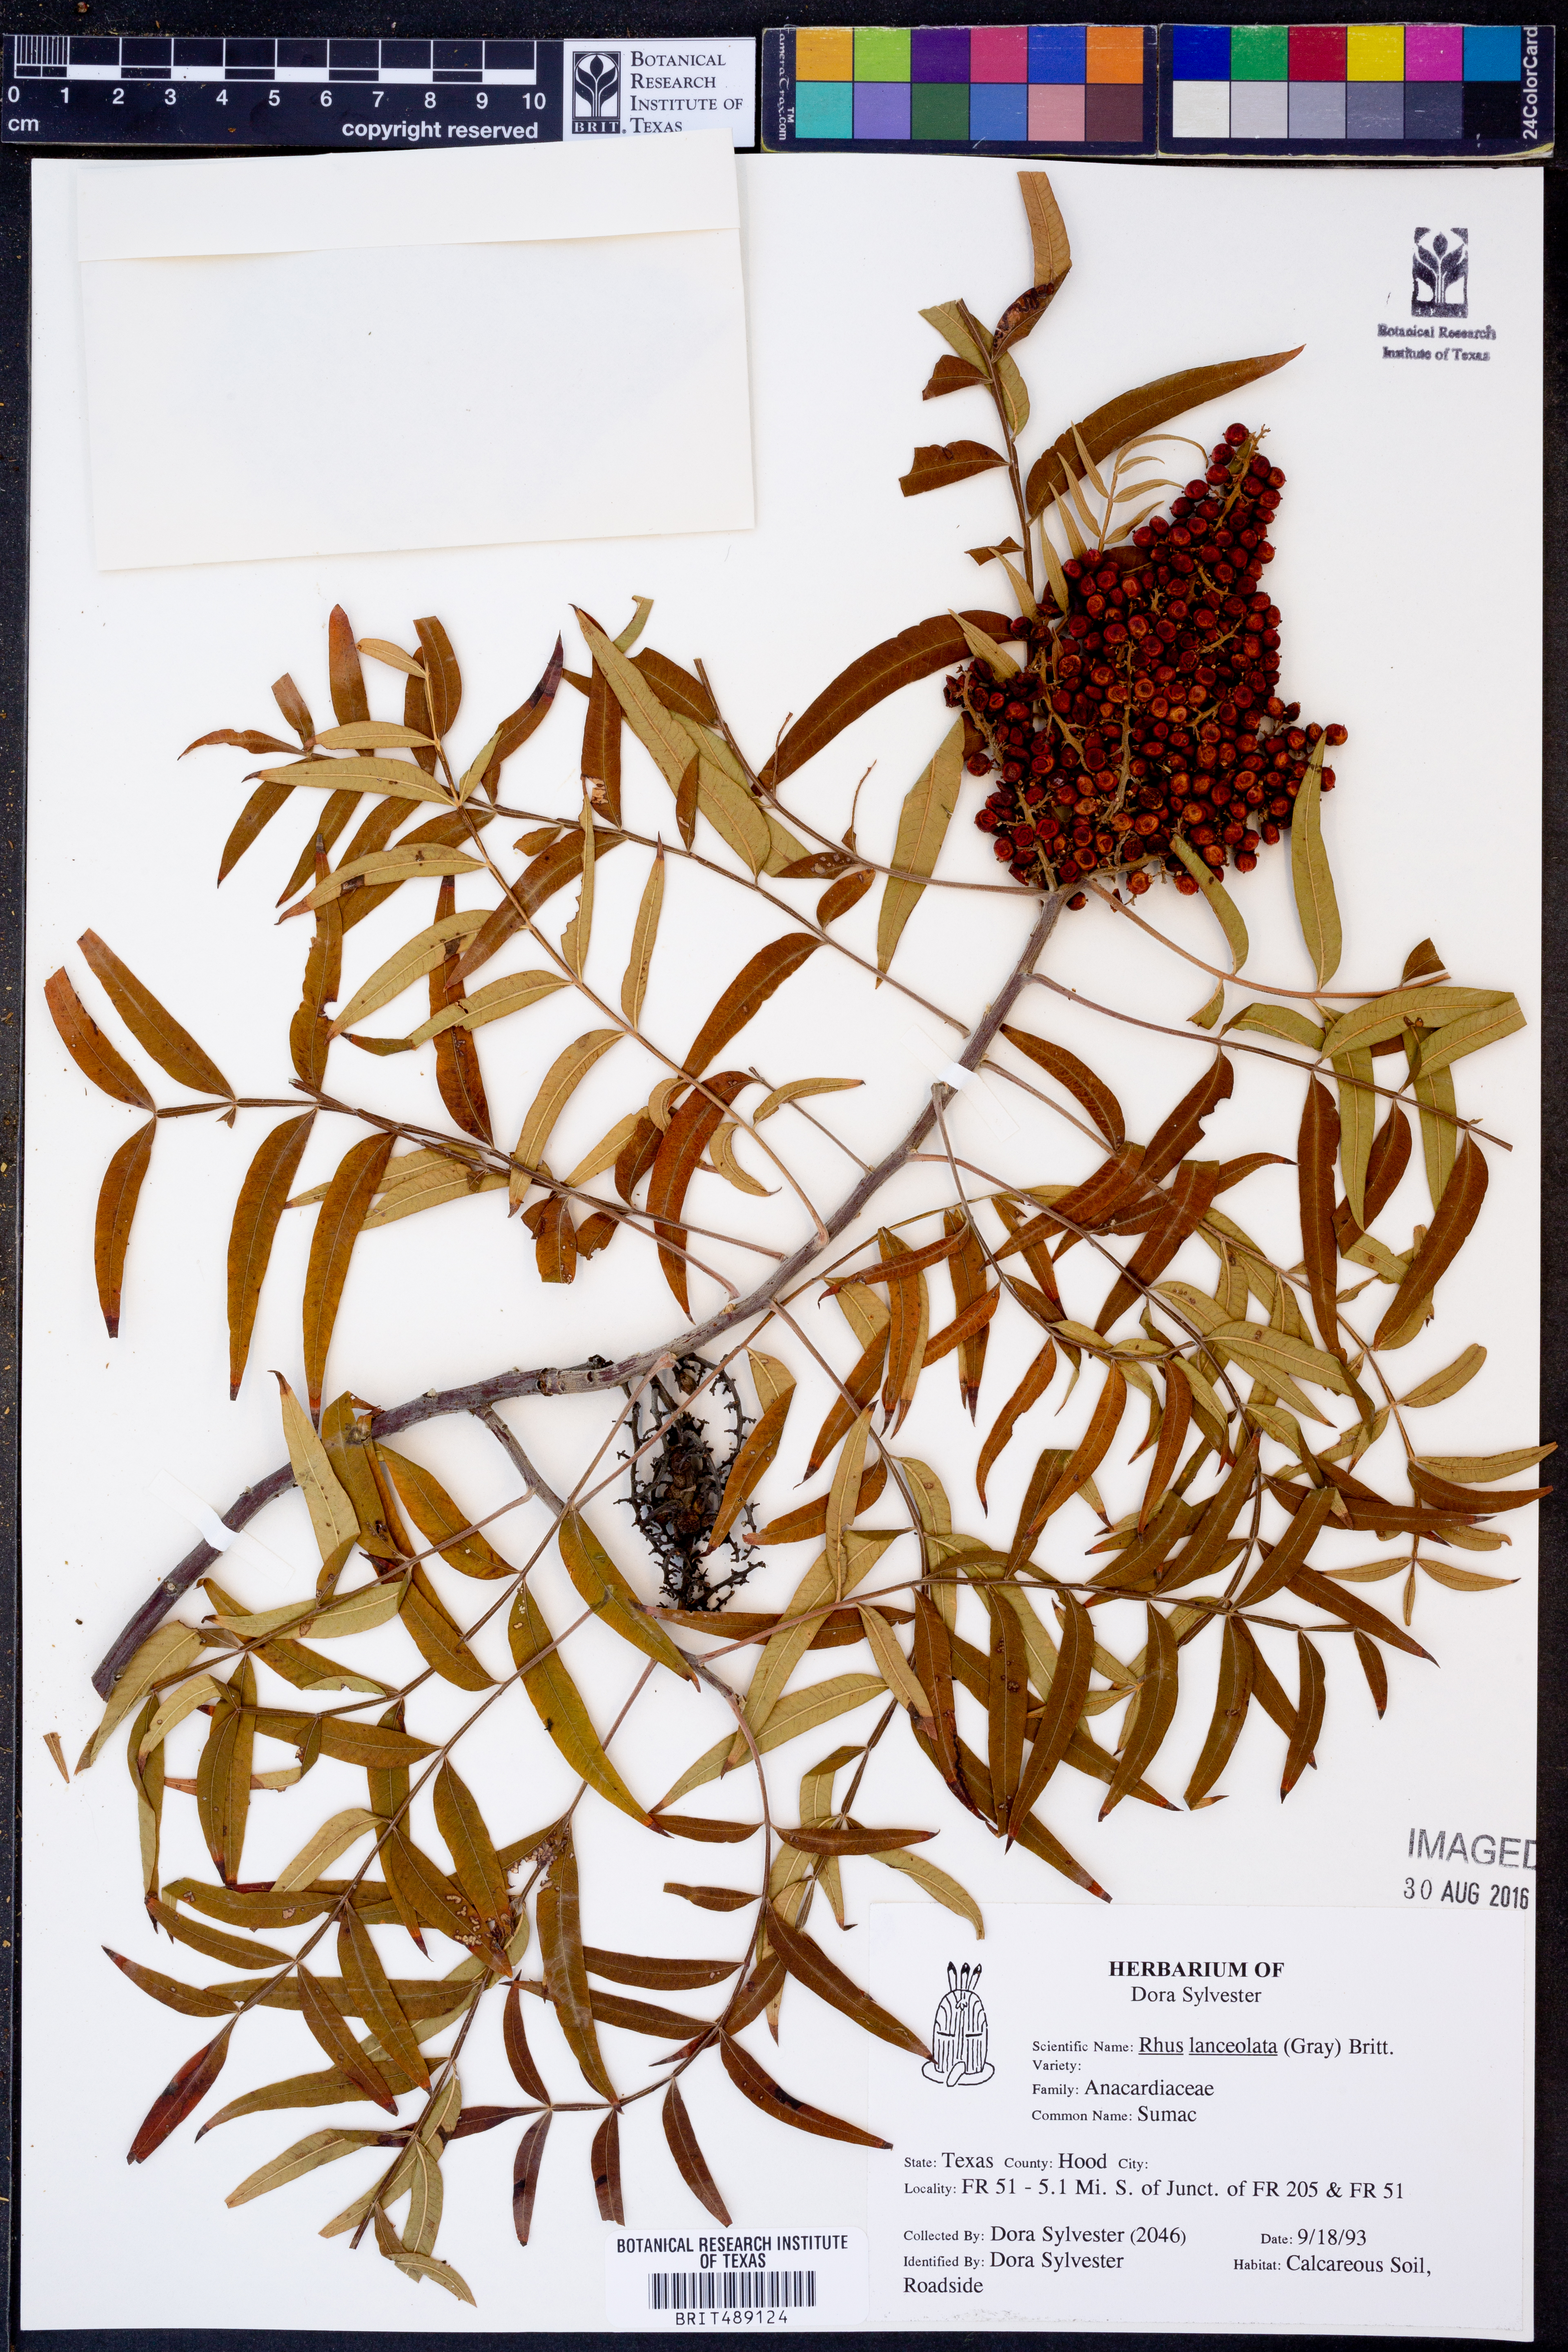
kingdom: Plantae
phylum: Tracheophyta
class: Magnoliopsida
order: Sapindales
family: Anacardiaceae
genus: Rhus
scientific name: Rhus lanceolata
